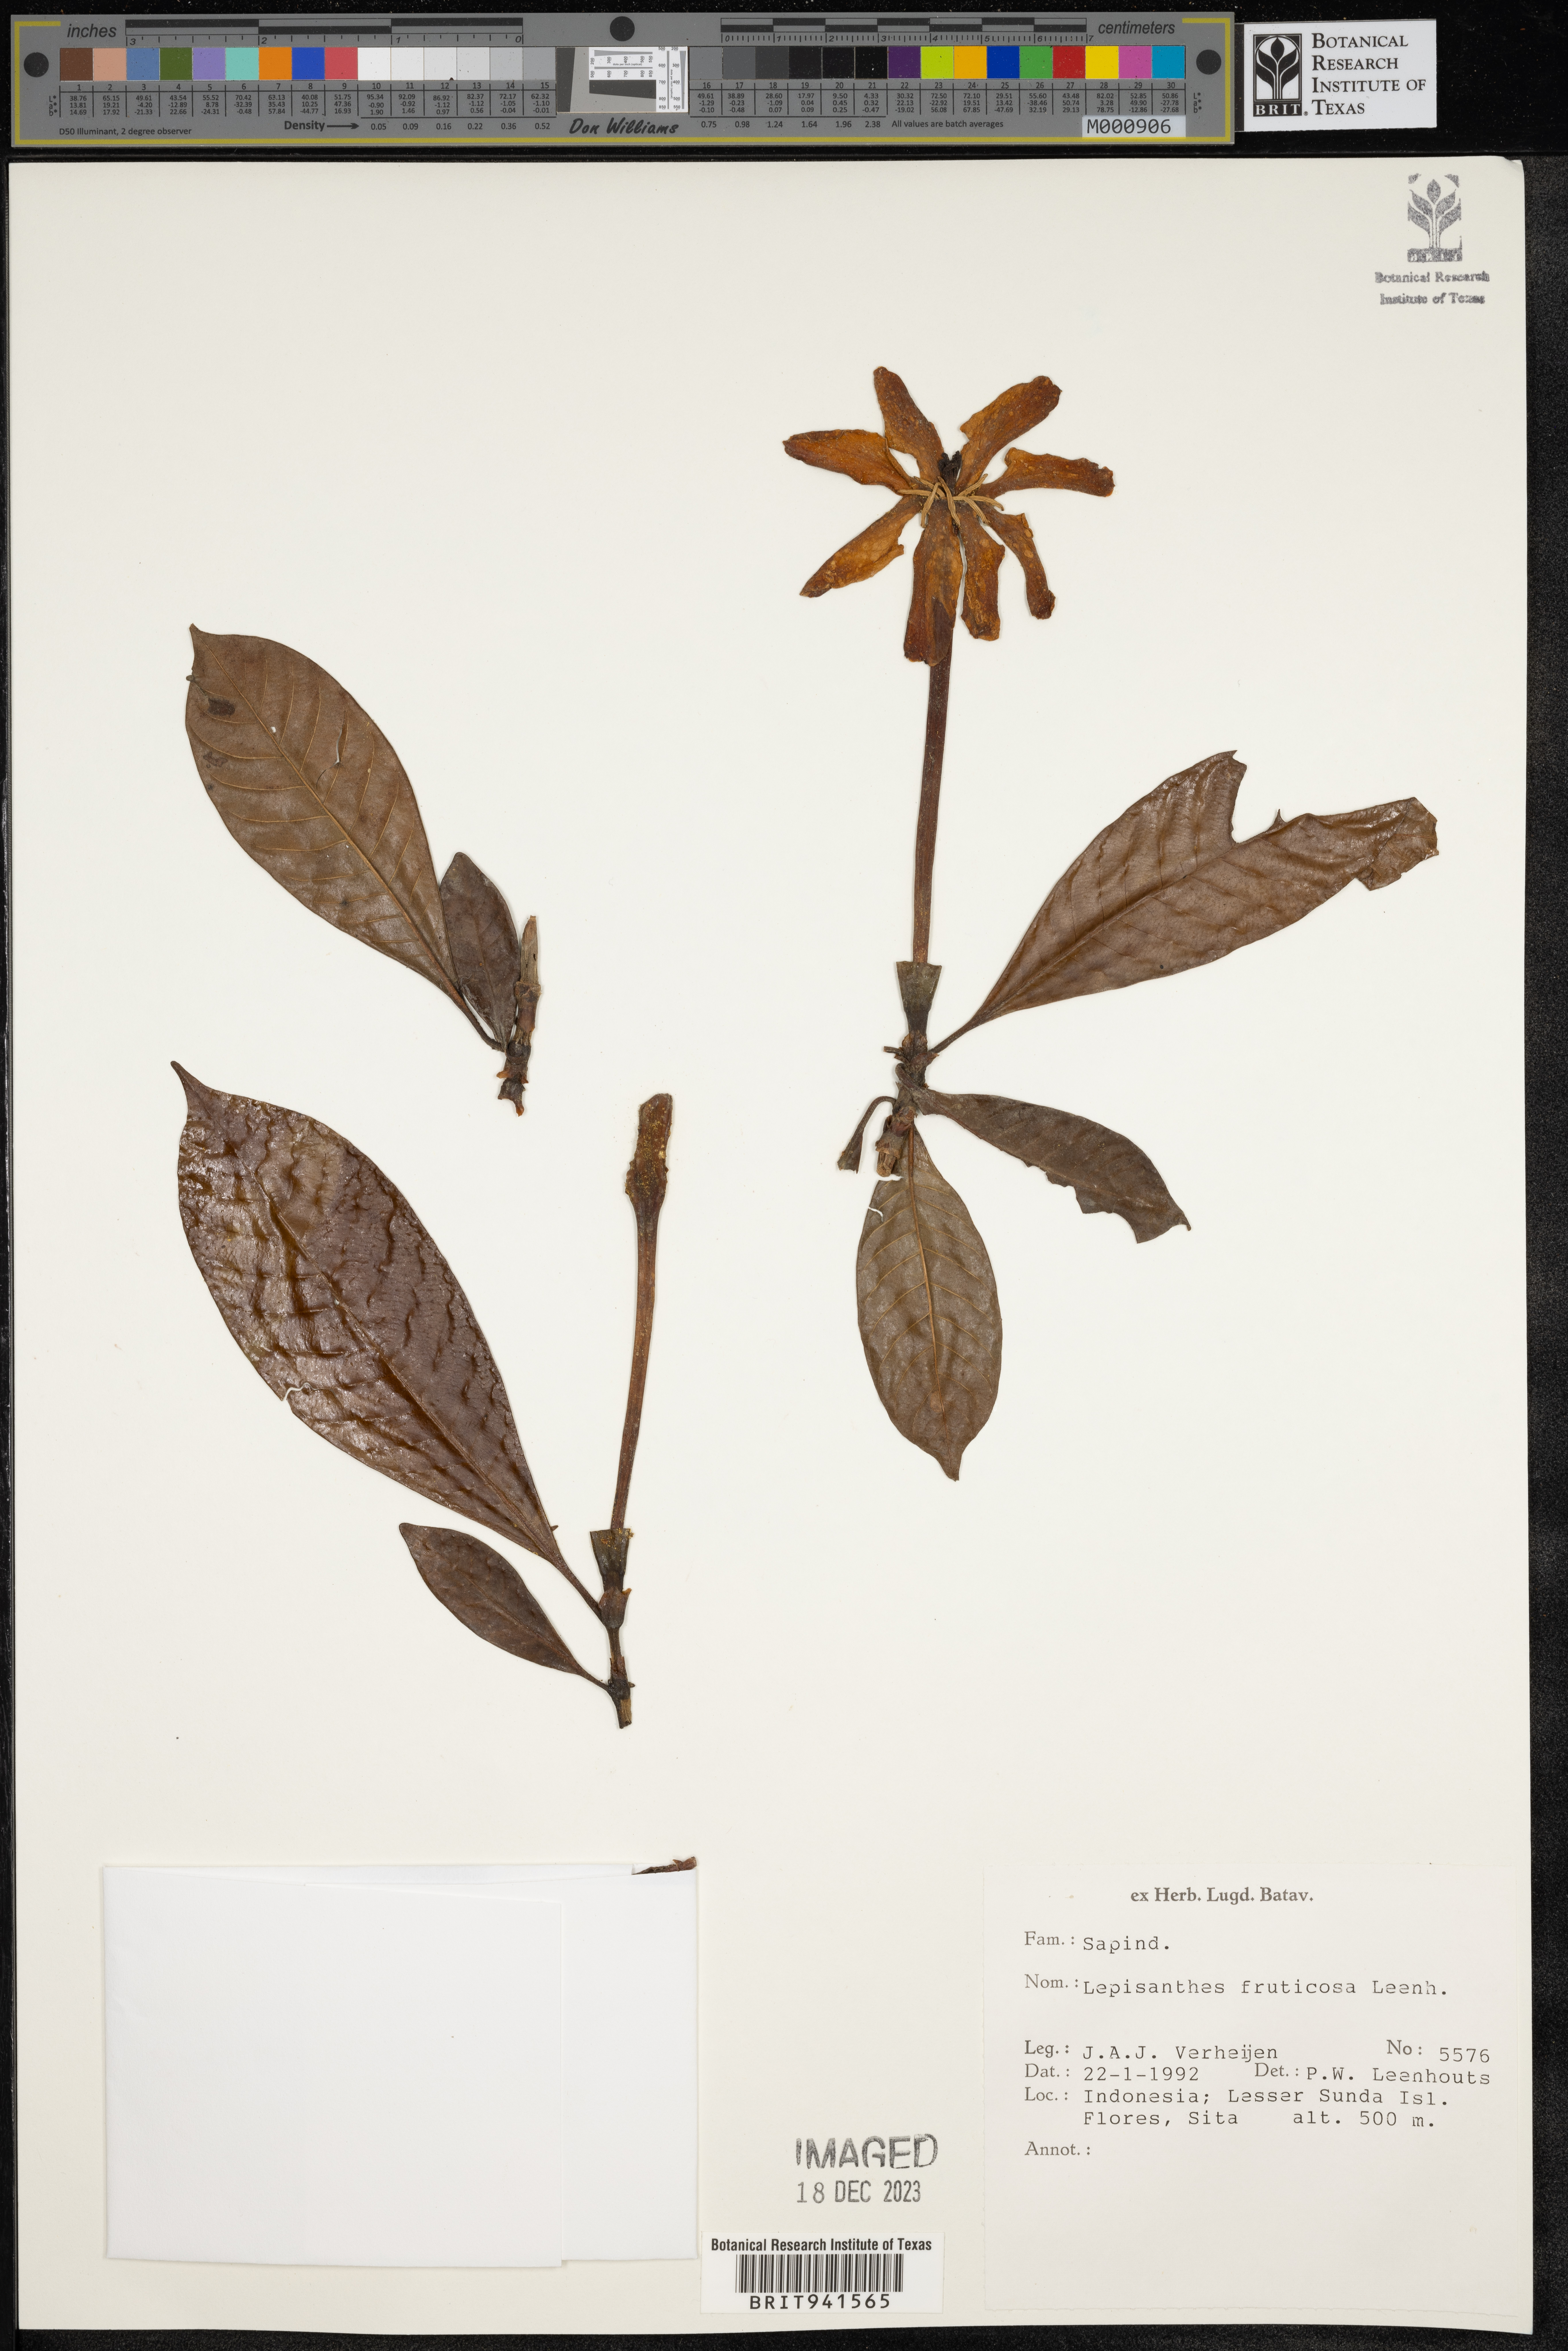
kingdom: Plantae
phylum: Tracheophyta
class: Magnoliopsida
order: Sapindales
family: Sapindaceae
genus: Lepisanthes
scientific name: Lepisanthes
